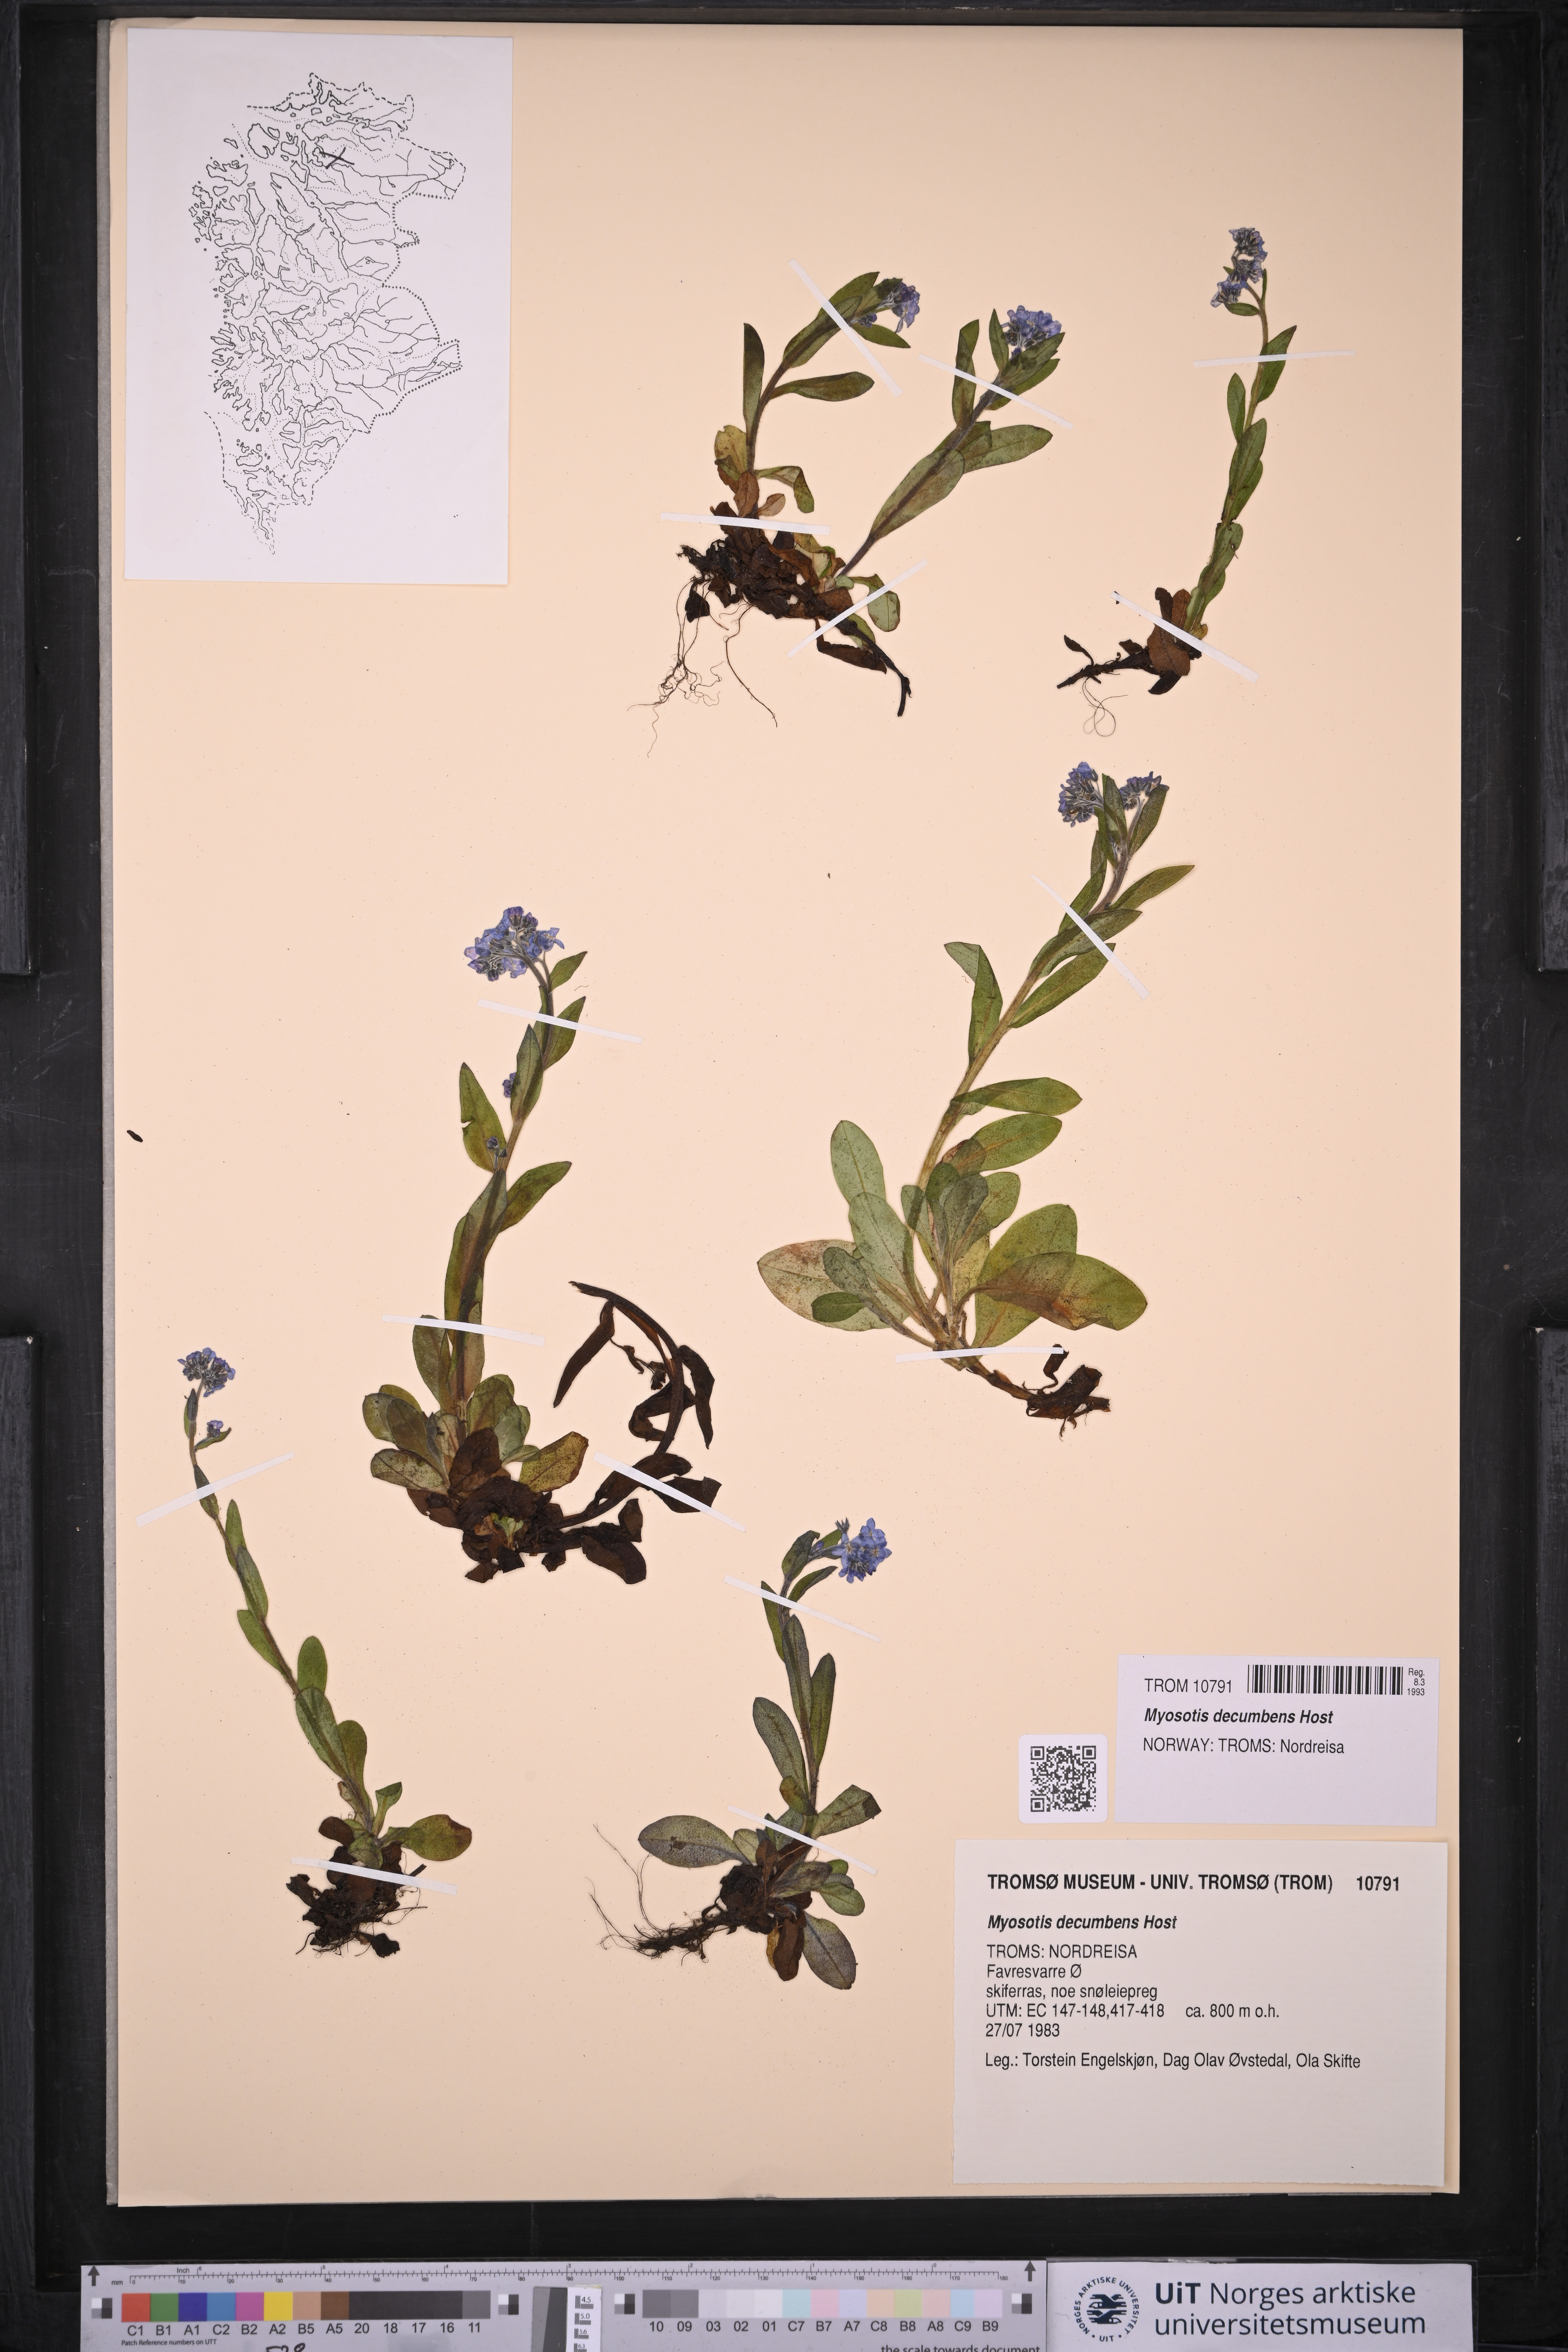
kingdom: Plantae
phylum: Tracheophyta
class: Magnoliopsida
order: Boraginales
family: Boraginaceae
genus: Myosotis
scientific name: Myosotis decumbens
